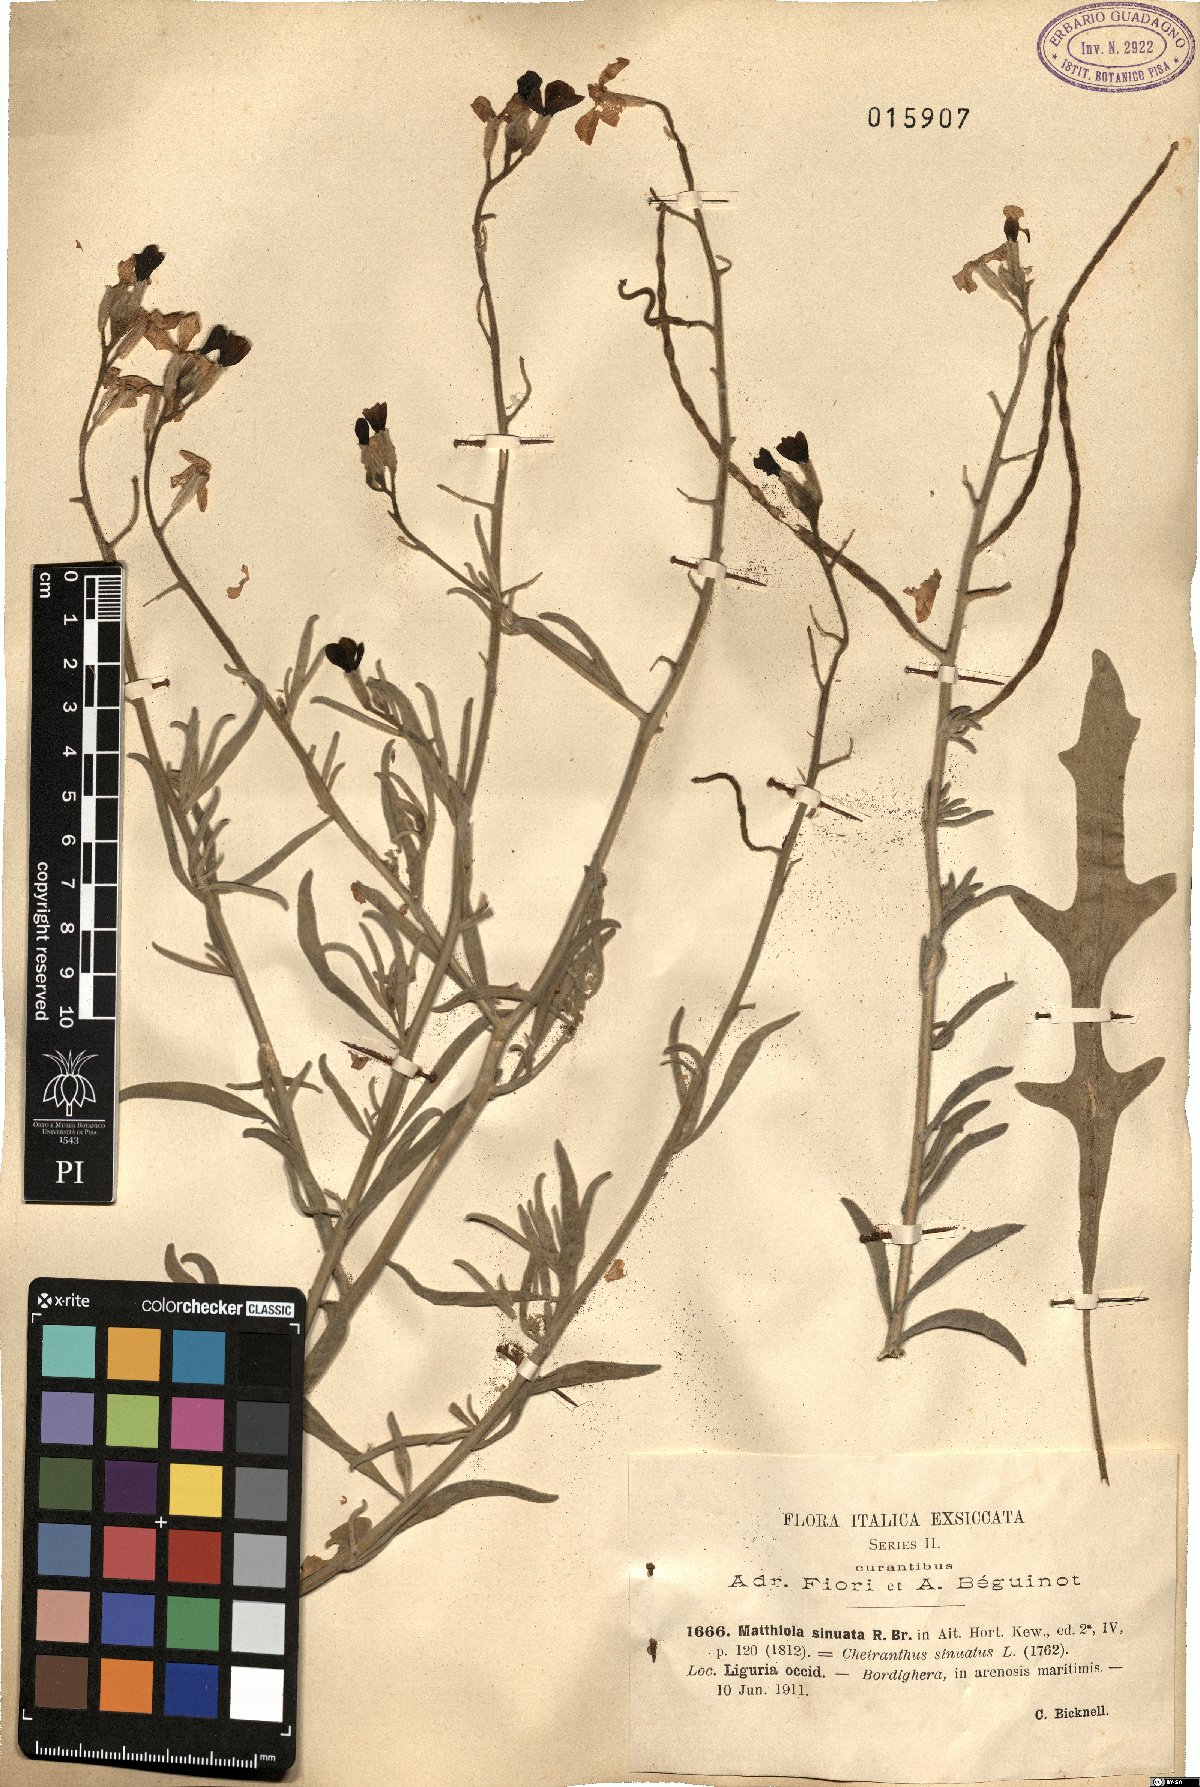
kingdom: Plantae
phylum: Tracheophyta
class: Magnoliopsida
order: Brassicales
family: Brassicaceae
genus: Matthiola
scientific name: Matthiola sinuata
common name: Sea stock
